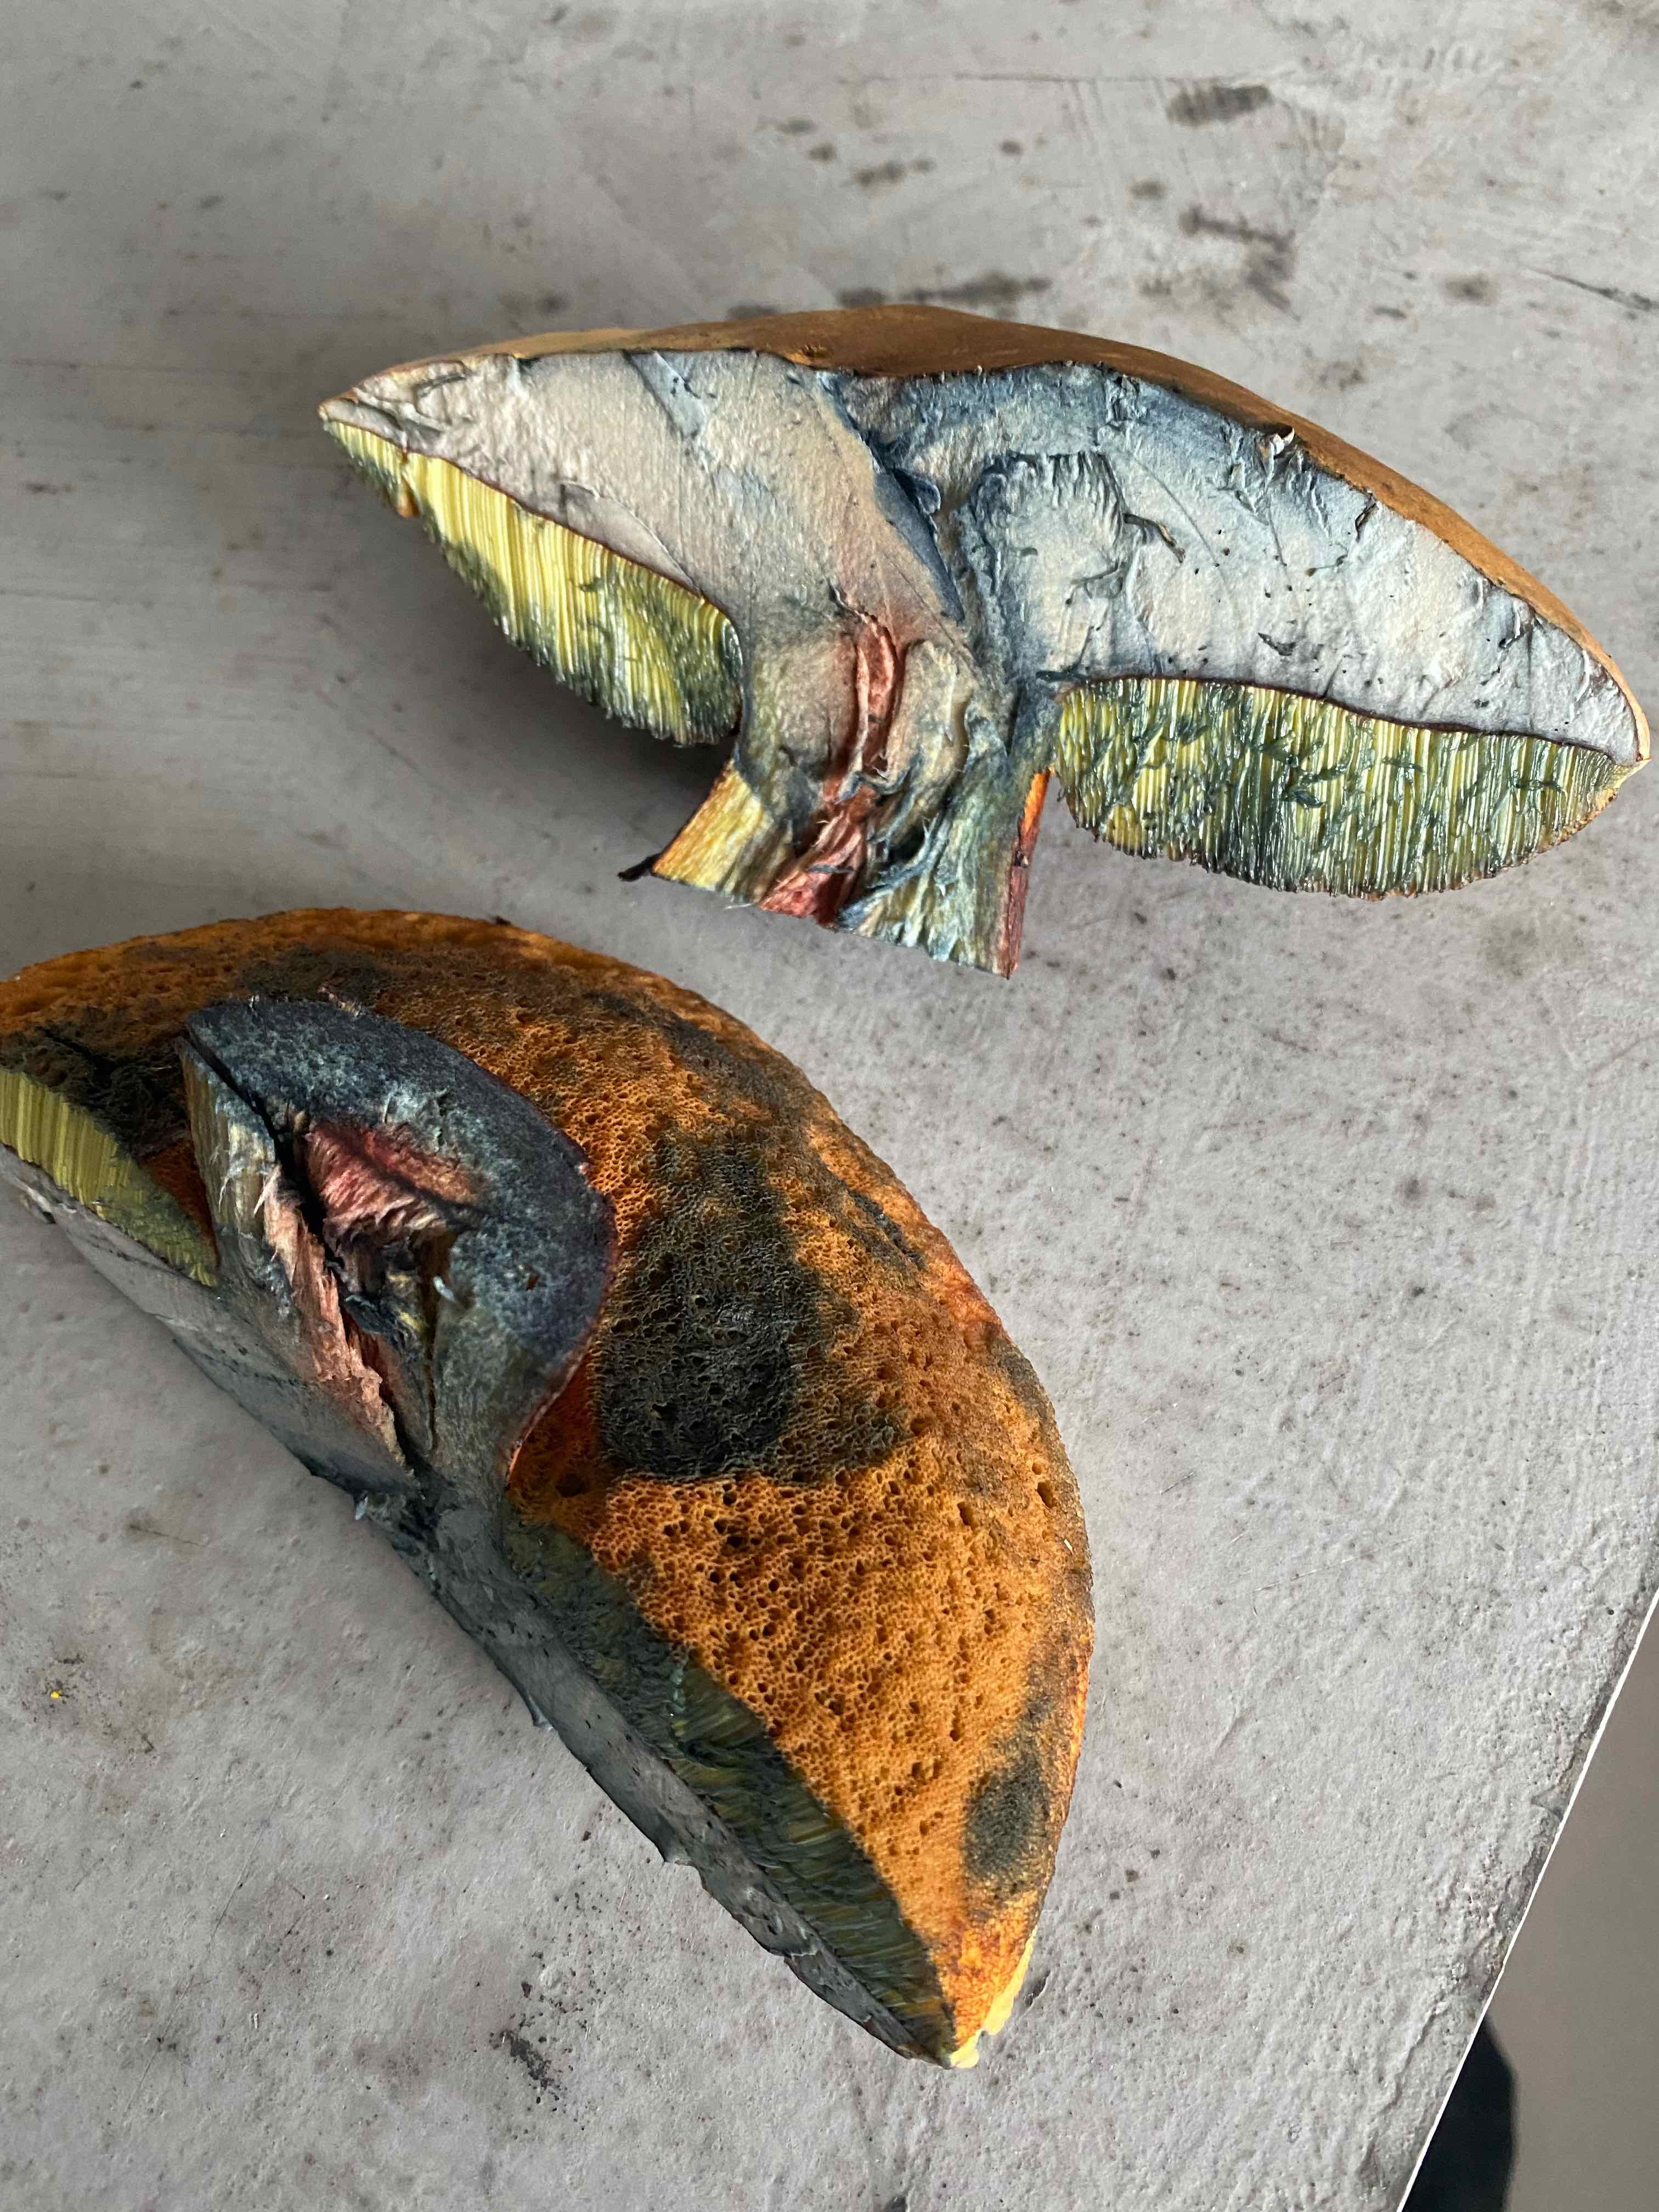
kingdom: Fungi
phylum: Basidiomycota
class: Agaricomycetes
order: Boletales
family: Boletaceae
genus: Suillellus
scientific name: Suillellus luridus
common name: netstokket indigorørhat
